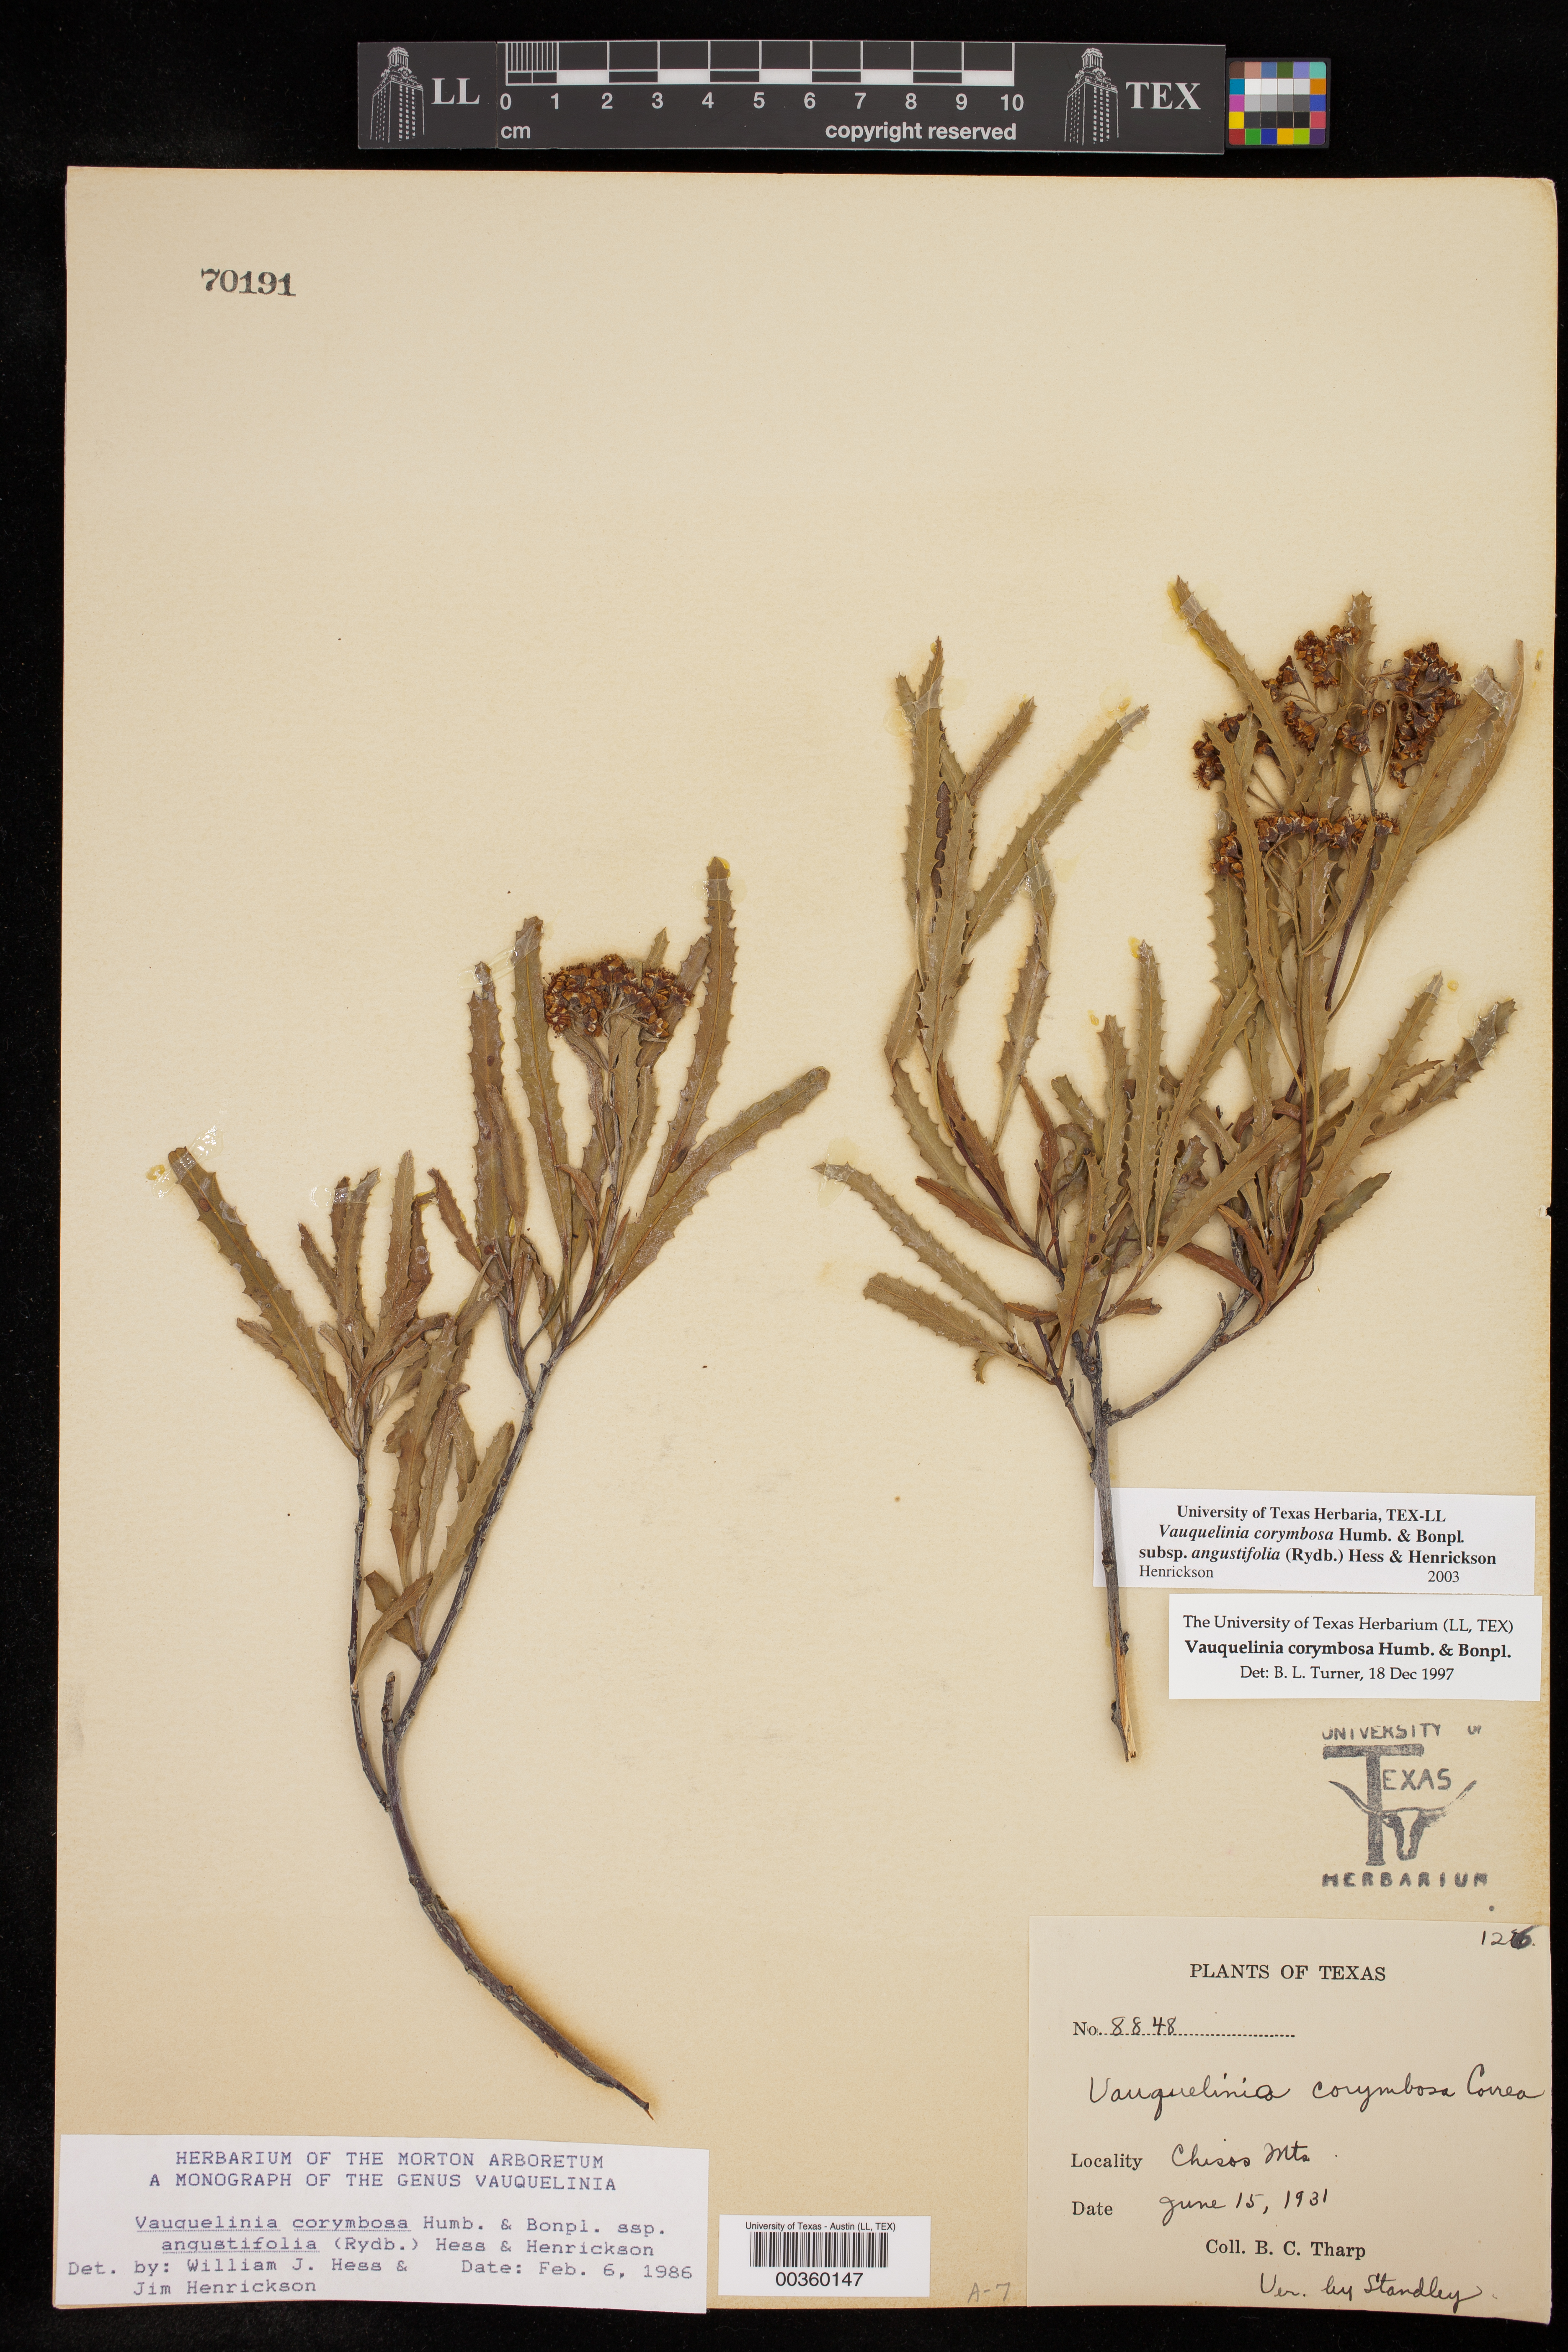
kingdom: Plantae
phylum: Tracheophyta
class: Magnoliopsida
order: Rosales
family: Rosaceae
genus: Vauquelinia
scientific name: Vauquelinia corymbosa
